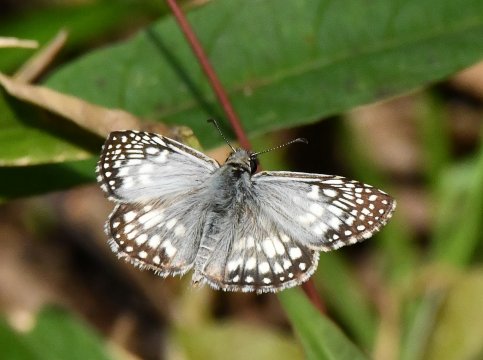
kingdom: Animalia
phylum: Arthropoda
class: Insecta
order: Lepidoptera
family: Hesperiidae
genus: Pyrgus
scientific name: Pyrgus oileus
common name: Tropical Checkered-Skipper
